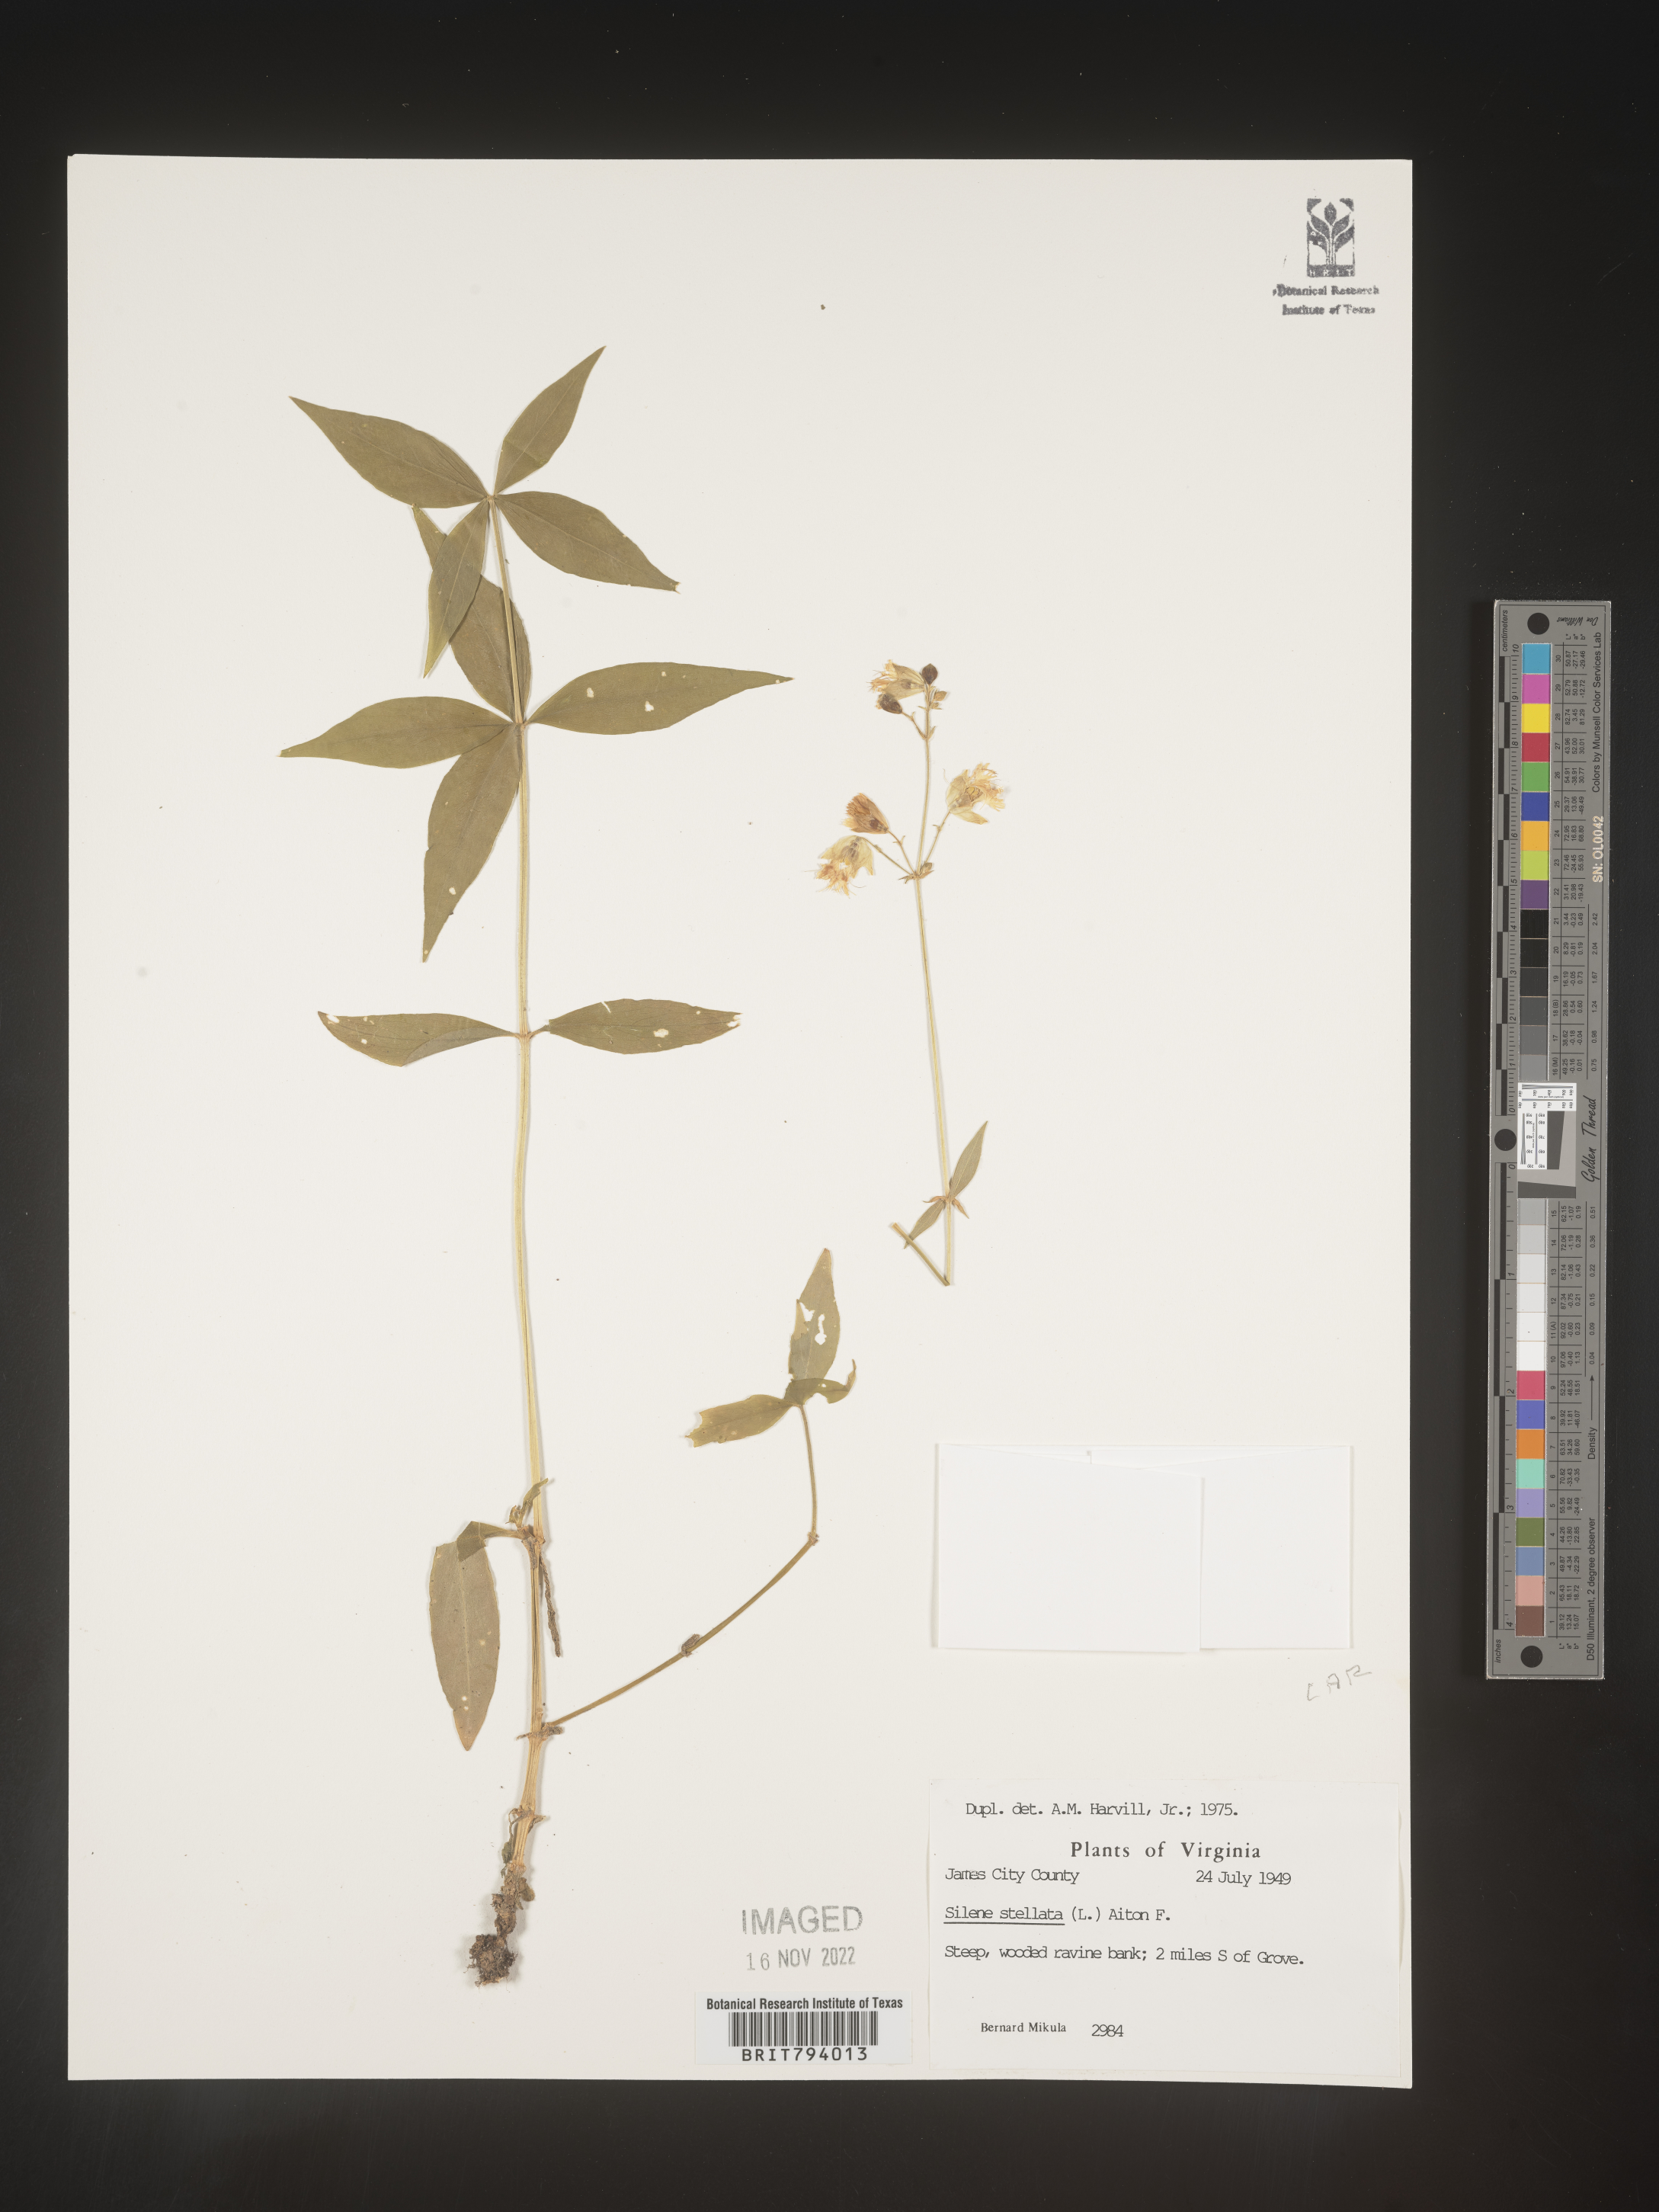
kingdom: Plantae
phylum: Tracheophyta
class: Magnoliopsida
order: Caryophyllales
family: Caryophyllaceae
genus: Silene
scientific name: Silene stellata
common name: Starry campion
